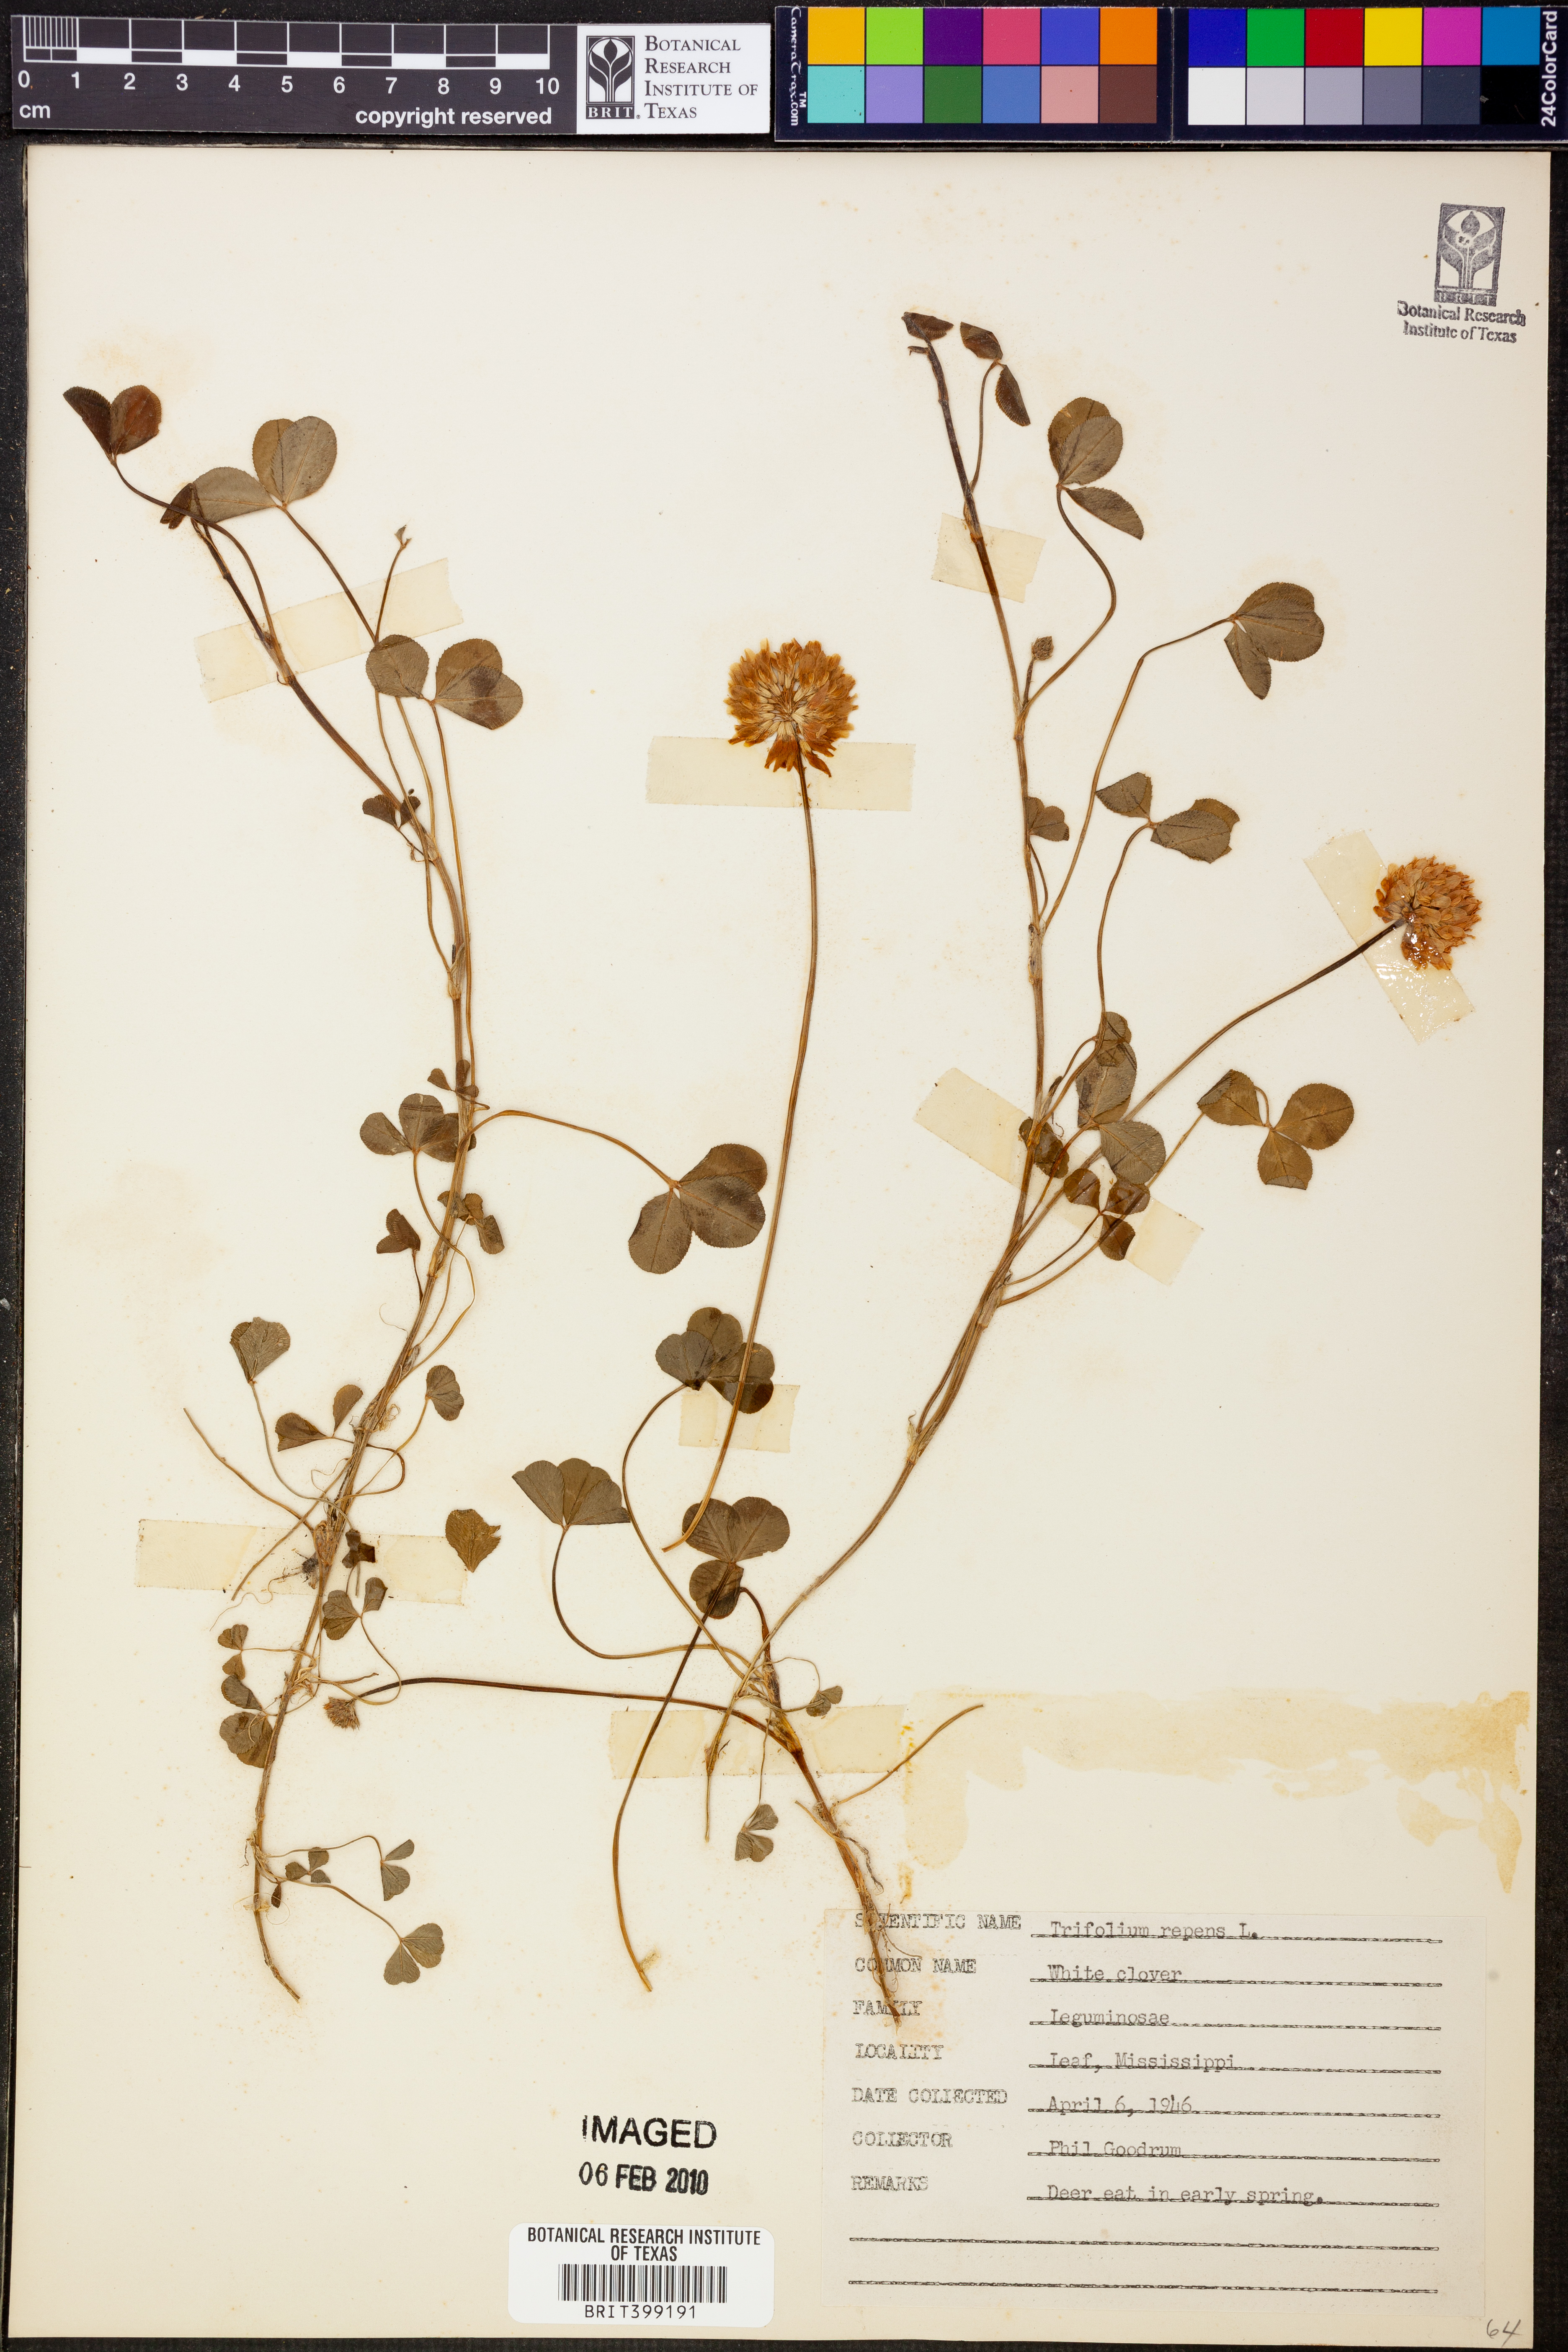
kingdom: Plantae
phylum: Tracheophyta
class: Magnoliopsida
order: Fabales
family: Fabaceae
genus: Trifolium
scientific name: Trifolium repens
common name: White clover
